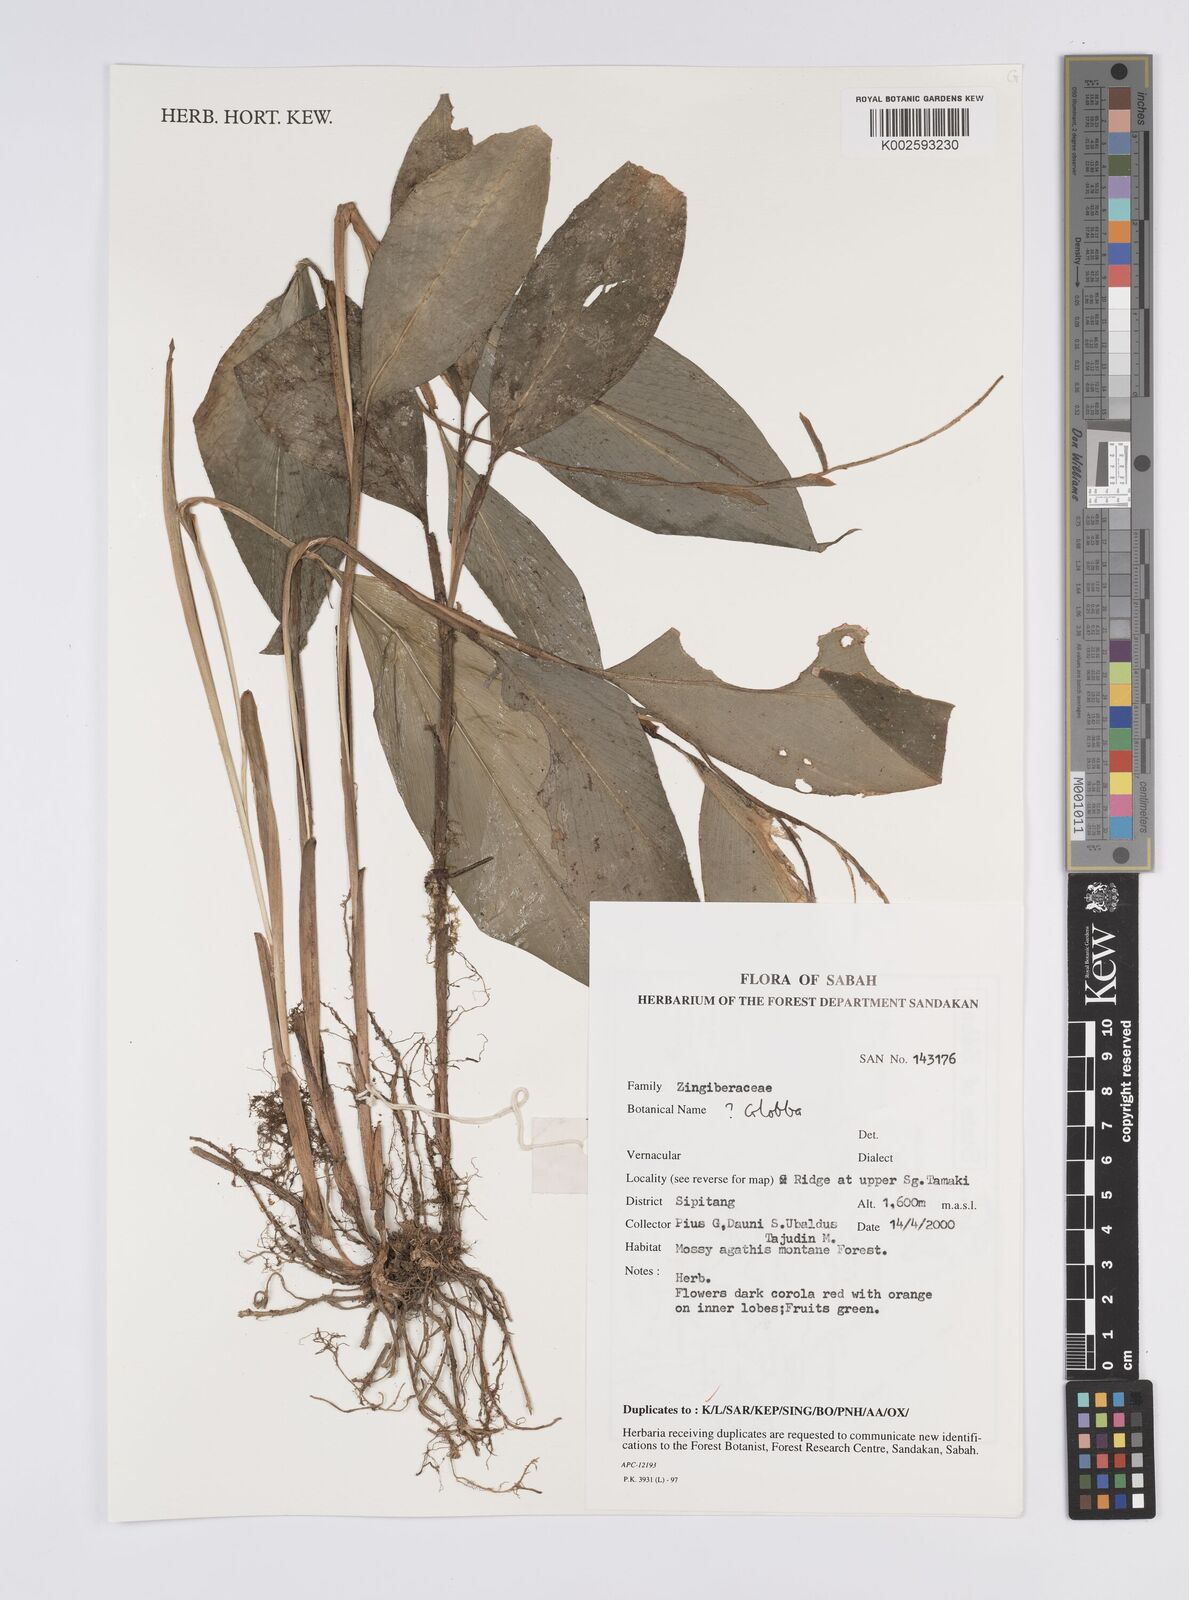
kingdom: Plantae
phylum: Tracheophyta
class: Liliopsida
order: Zingiberales
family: Zingiberaceae
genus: Globba
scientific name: Globba
